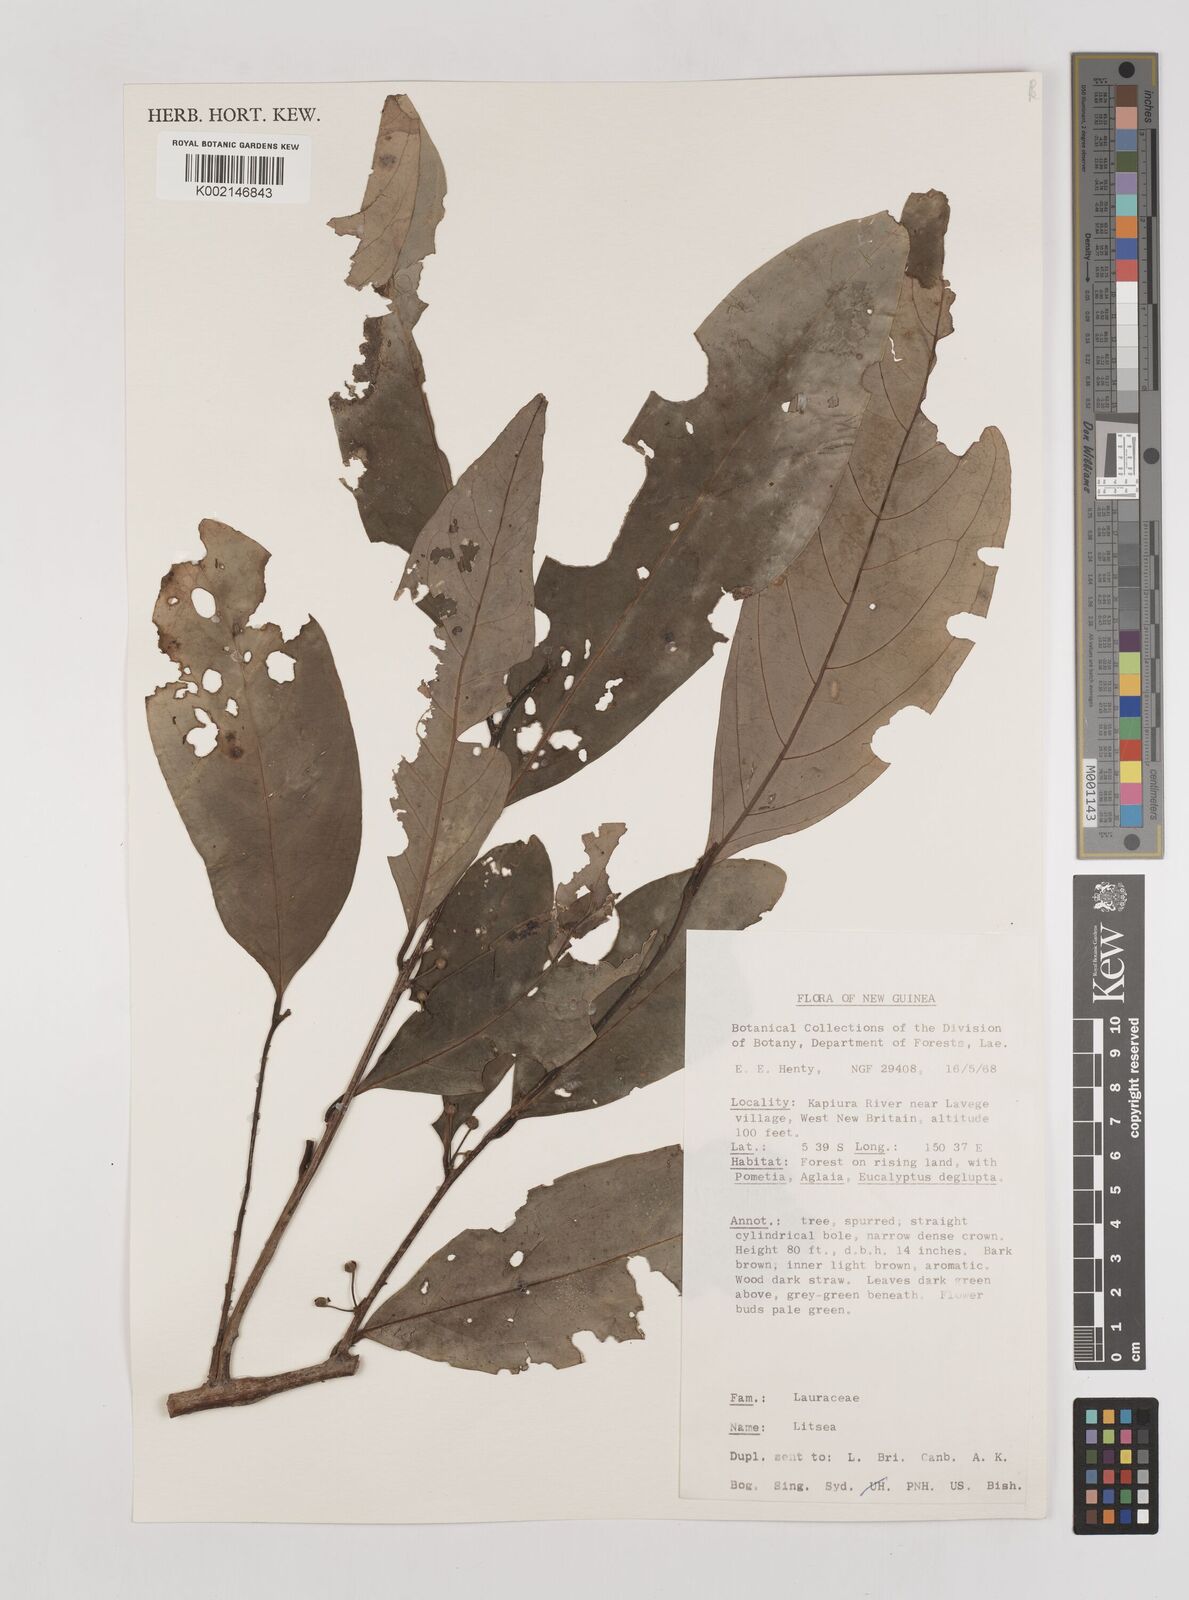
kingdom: Plantae
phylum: Tracheophyta
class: Magnoliopsida
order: Laurales
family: Lauraceae
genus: Litsea
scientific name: Litsea
